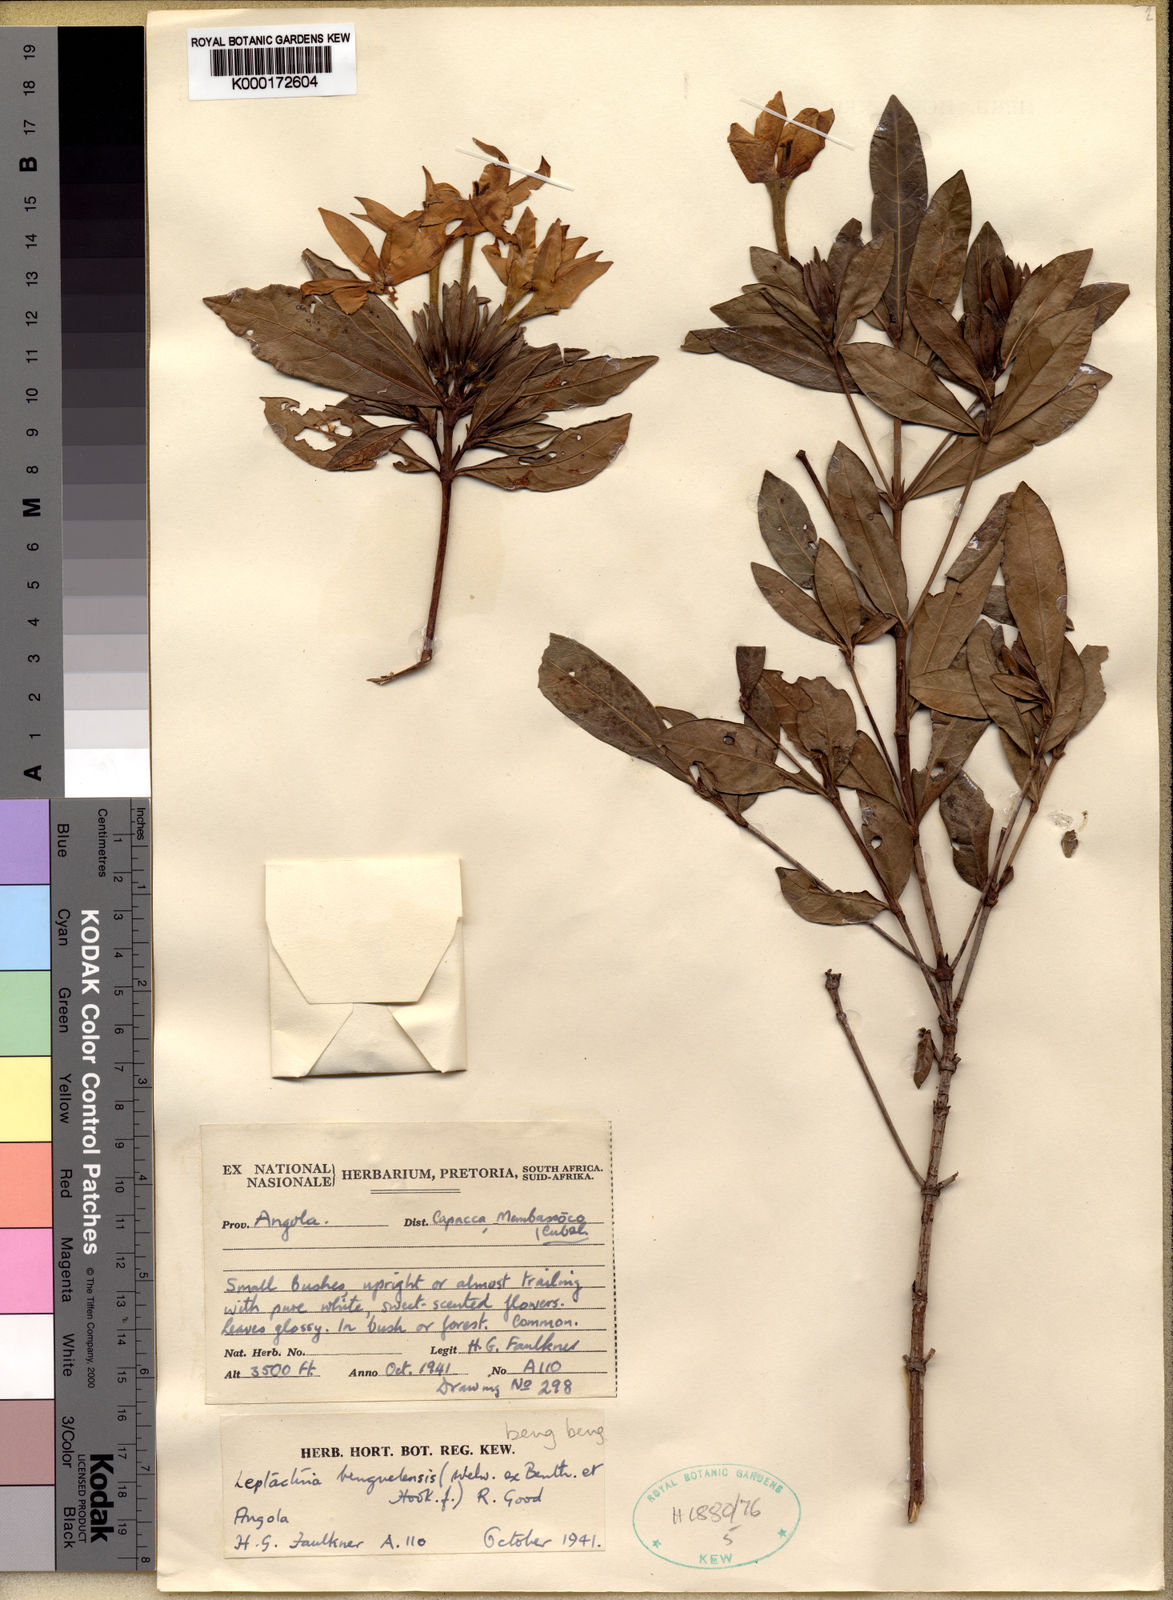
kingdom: Plantae
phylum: Tracheophyta
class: Magnoliopsida
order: Gentianales
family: Rubiaceae
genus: Leptactina
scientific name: Leptactina benguelensis
